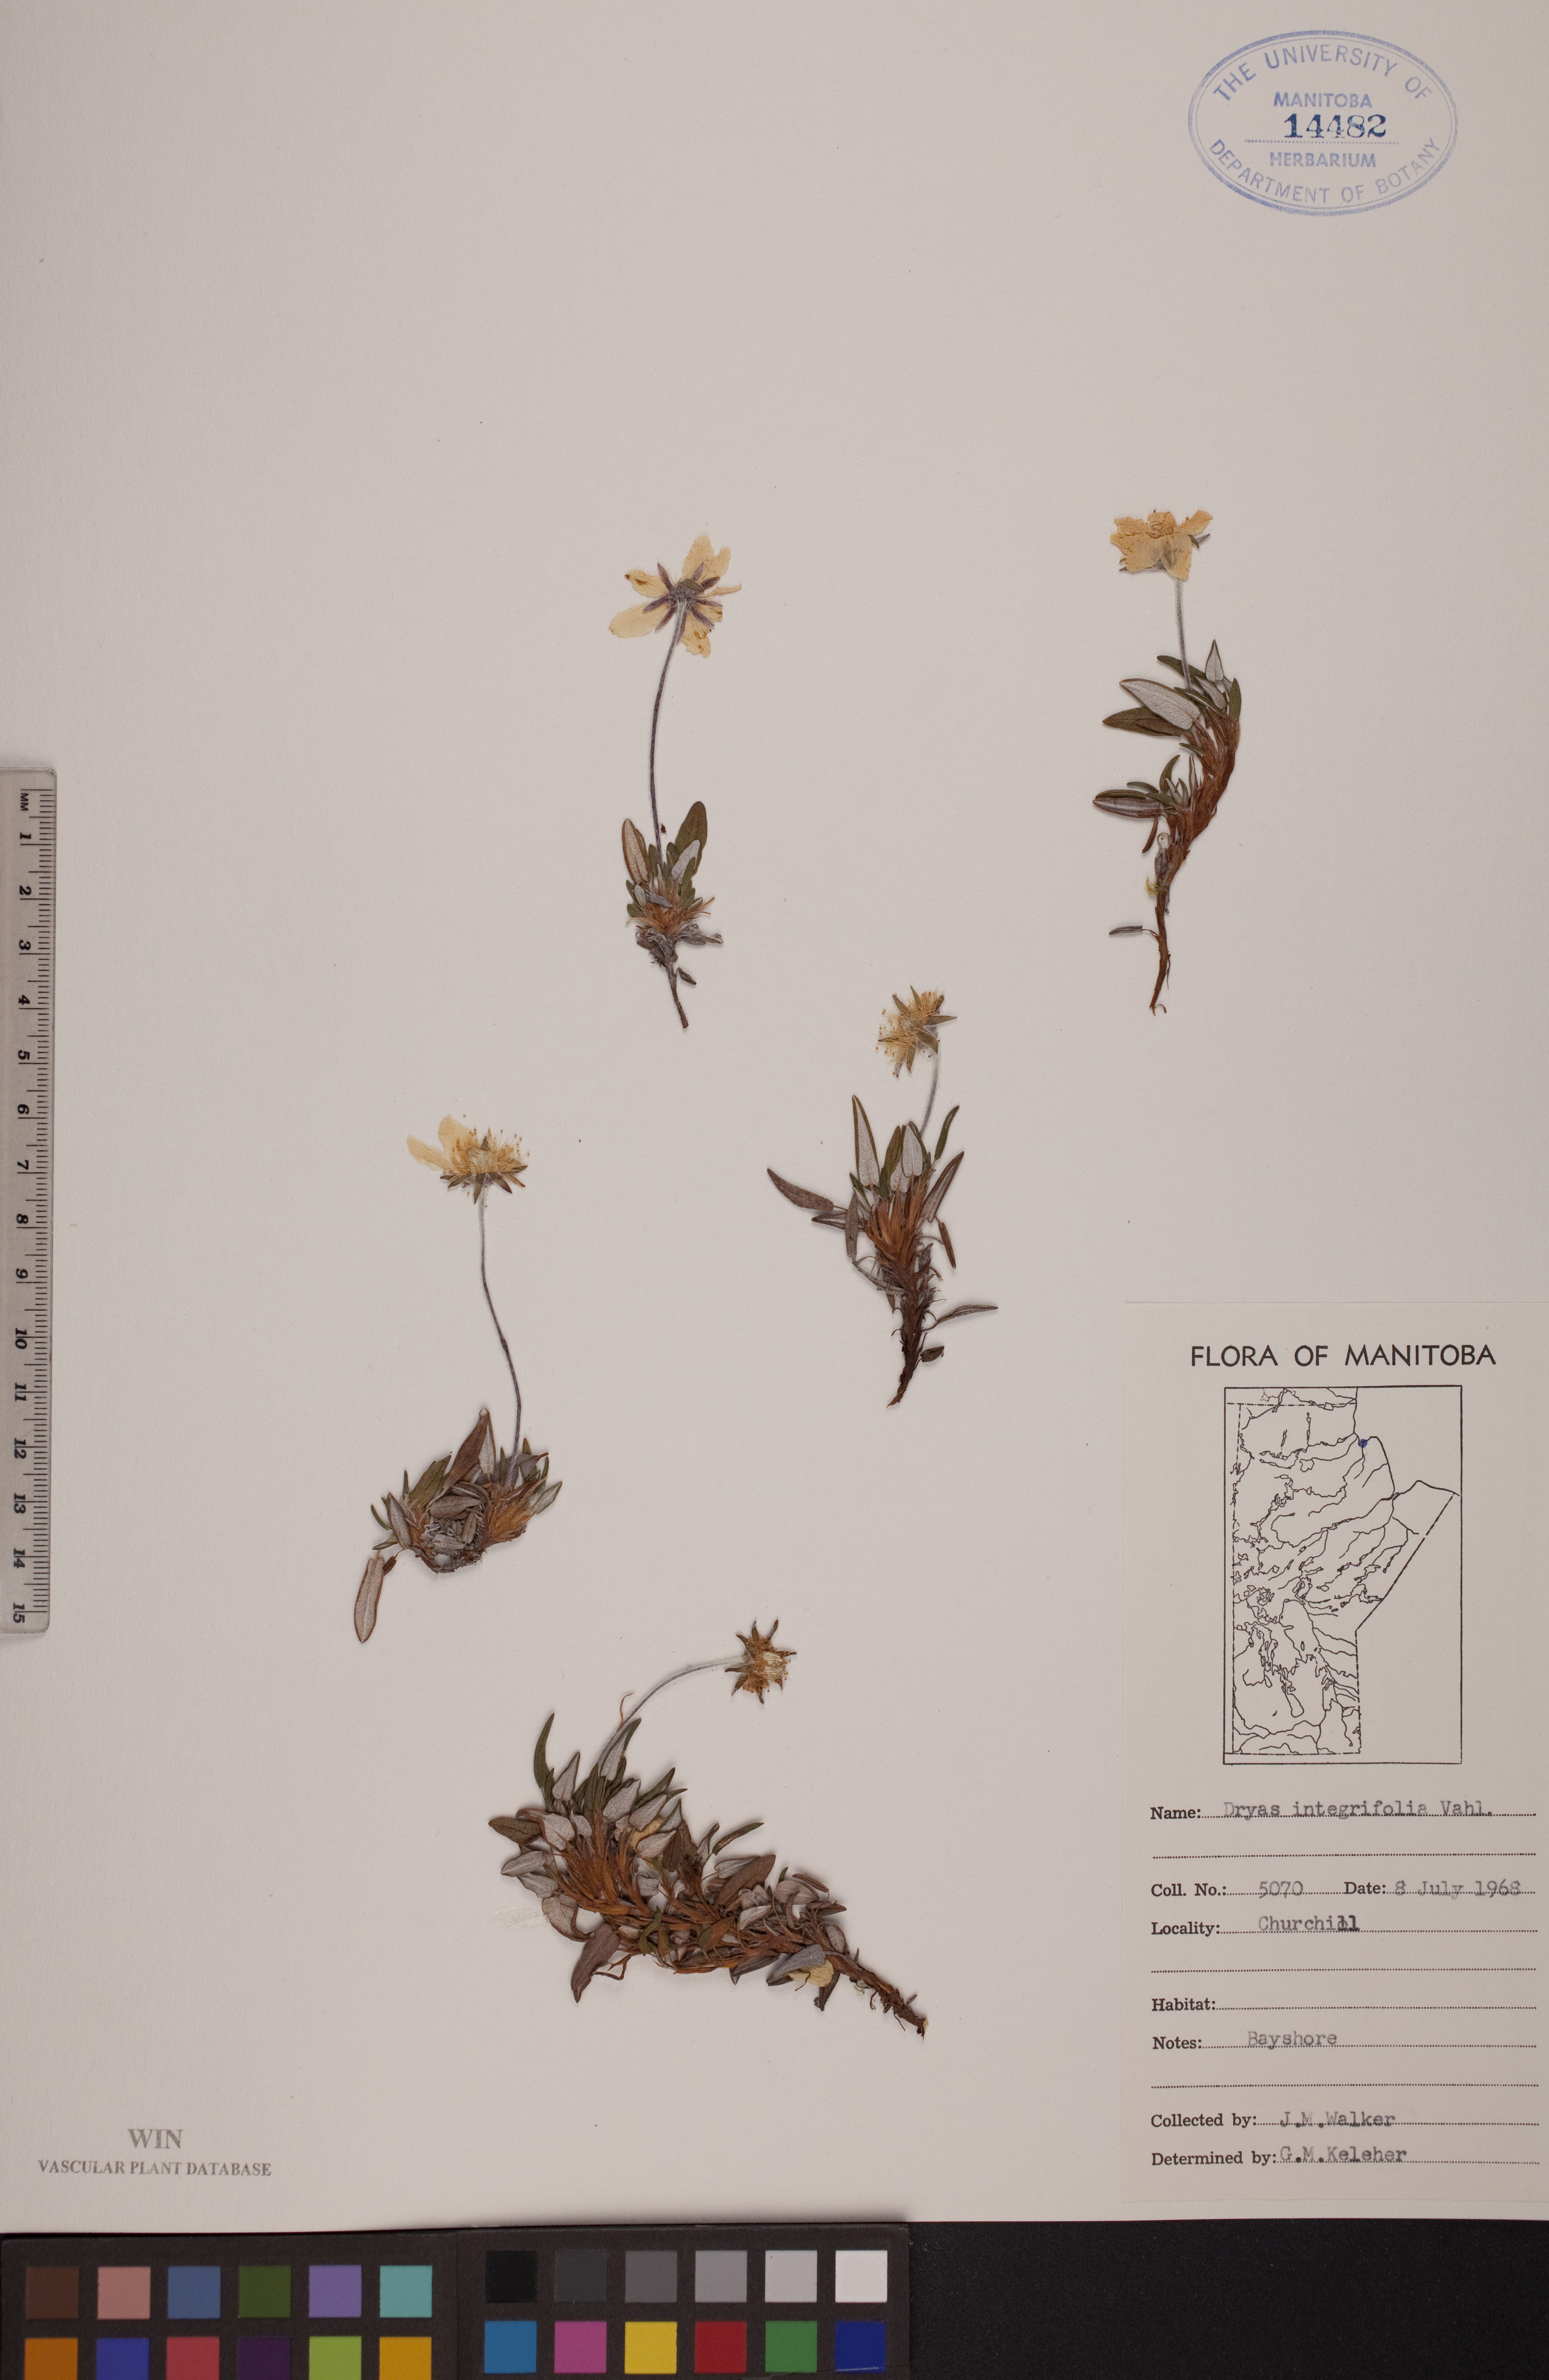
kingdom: Plantae
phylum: Tracheophyta
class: Magnoliopsida
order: Rosales
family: Rosaceae
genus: Dryas
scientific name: Dryas integrifolia
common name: Entire-leaved mountain avens
